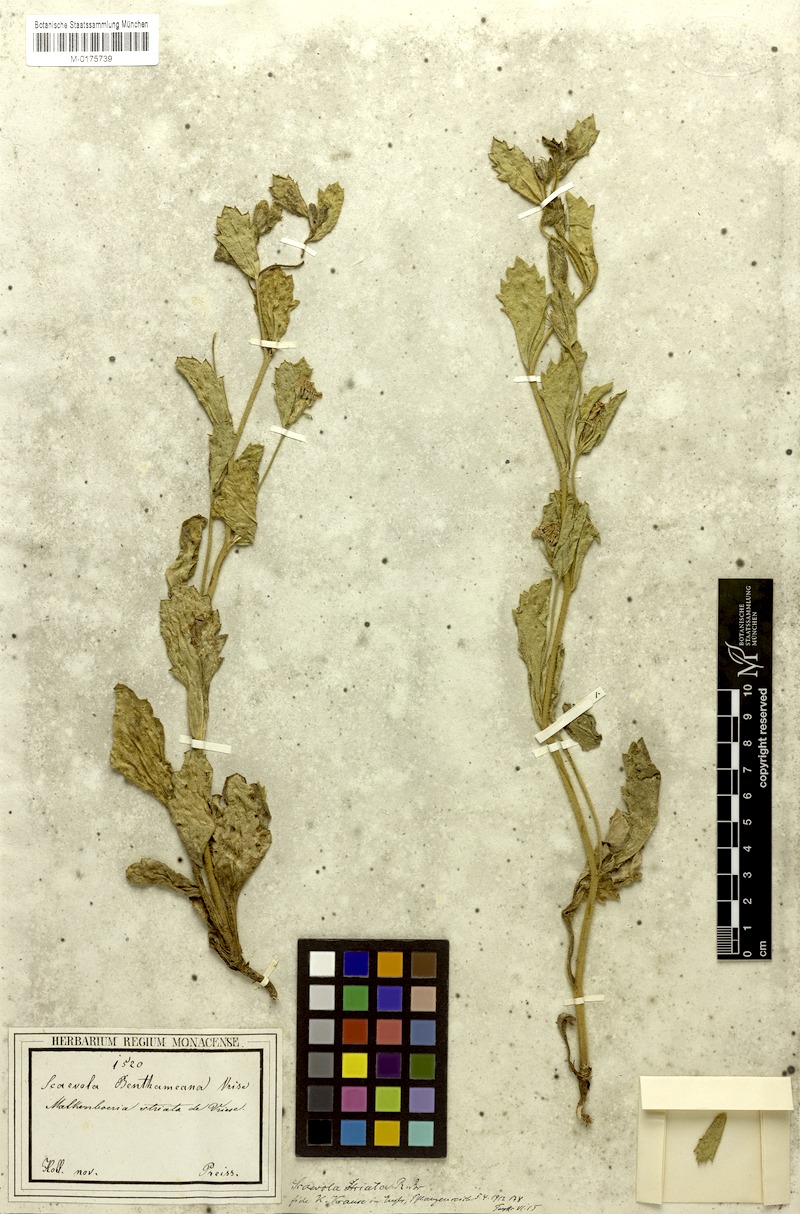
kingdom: Plantae
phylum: Tracheophyta
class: Magnoliopsida
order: Asterales
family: Goodeniaceae
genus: Scaevola
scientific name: Scaevola calliptera
